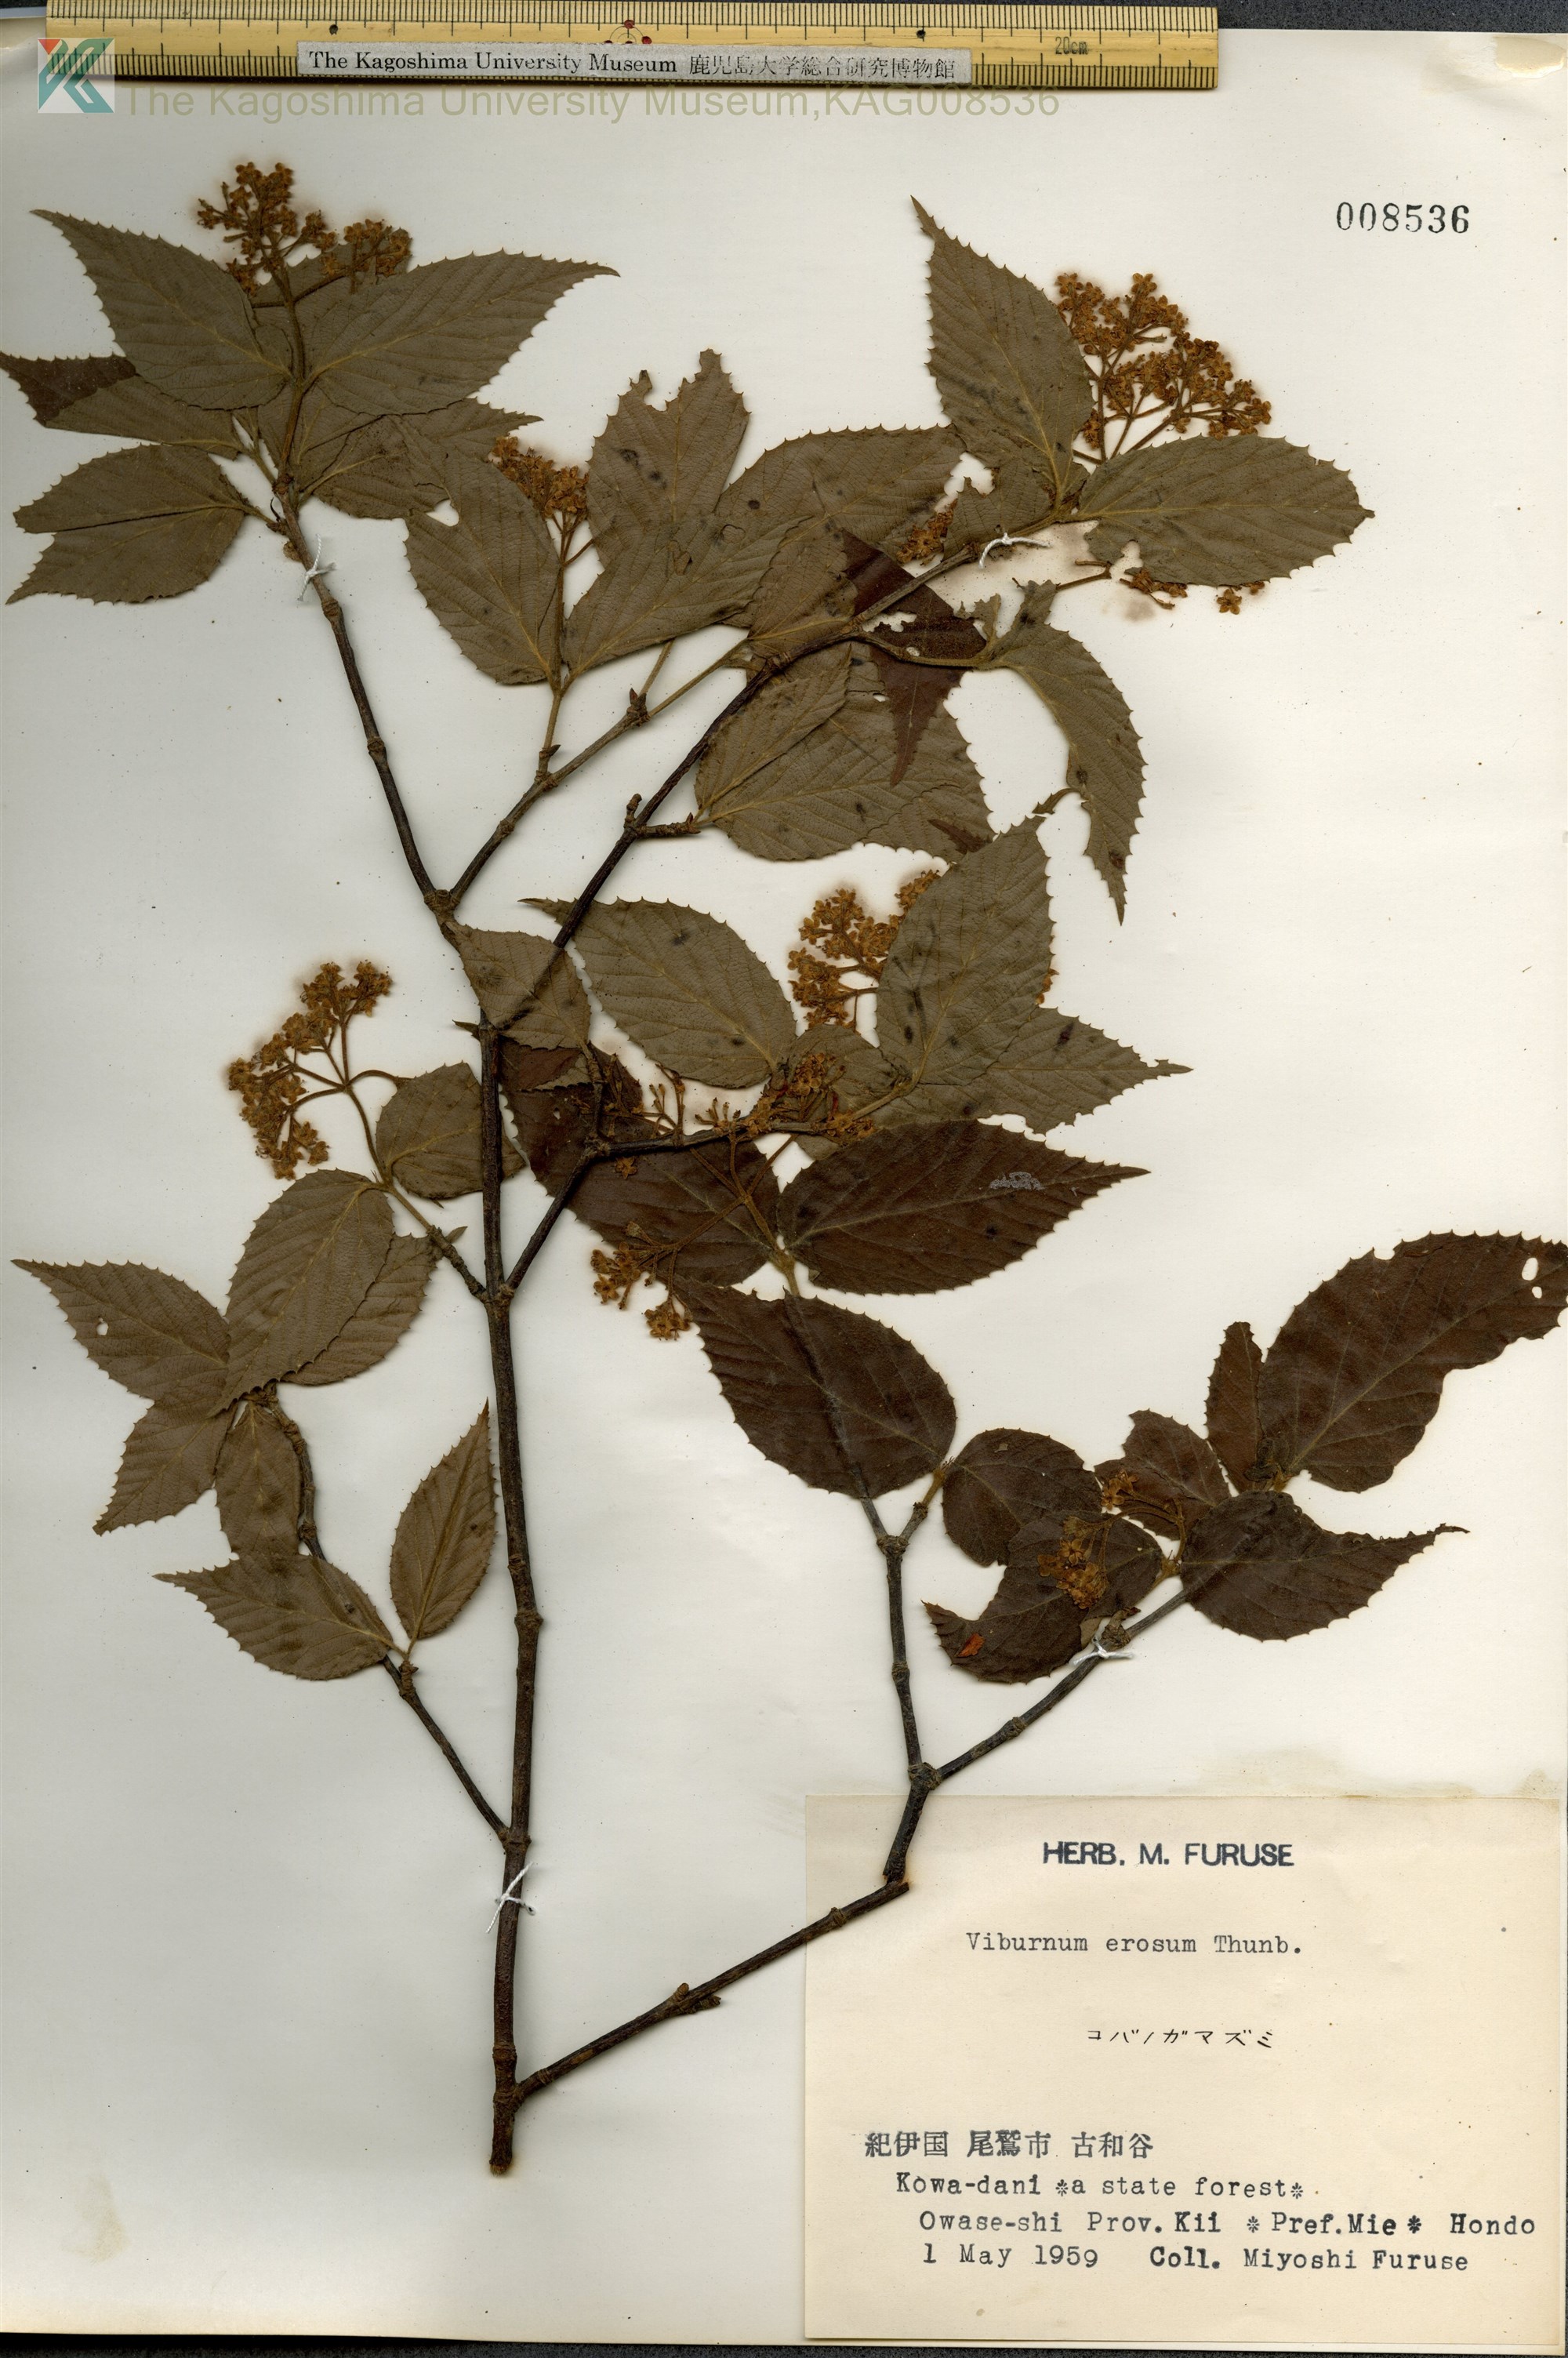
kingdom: Plantae
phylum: Tracheophyta
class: Magnoliopsida
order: Dipsacales
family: Viburnaceae
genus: Viburnum
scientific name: Viburnum erosum
